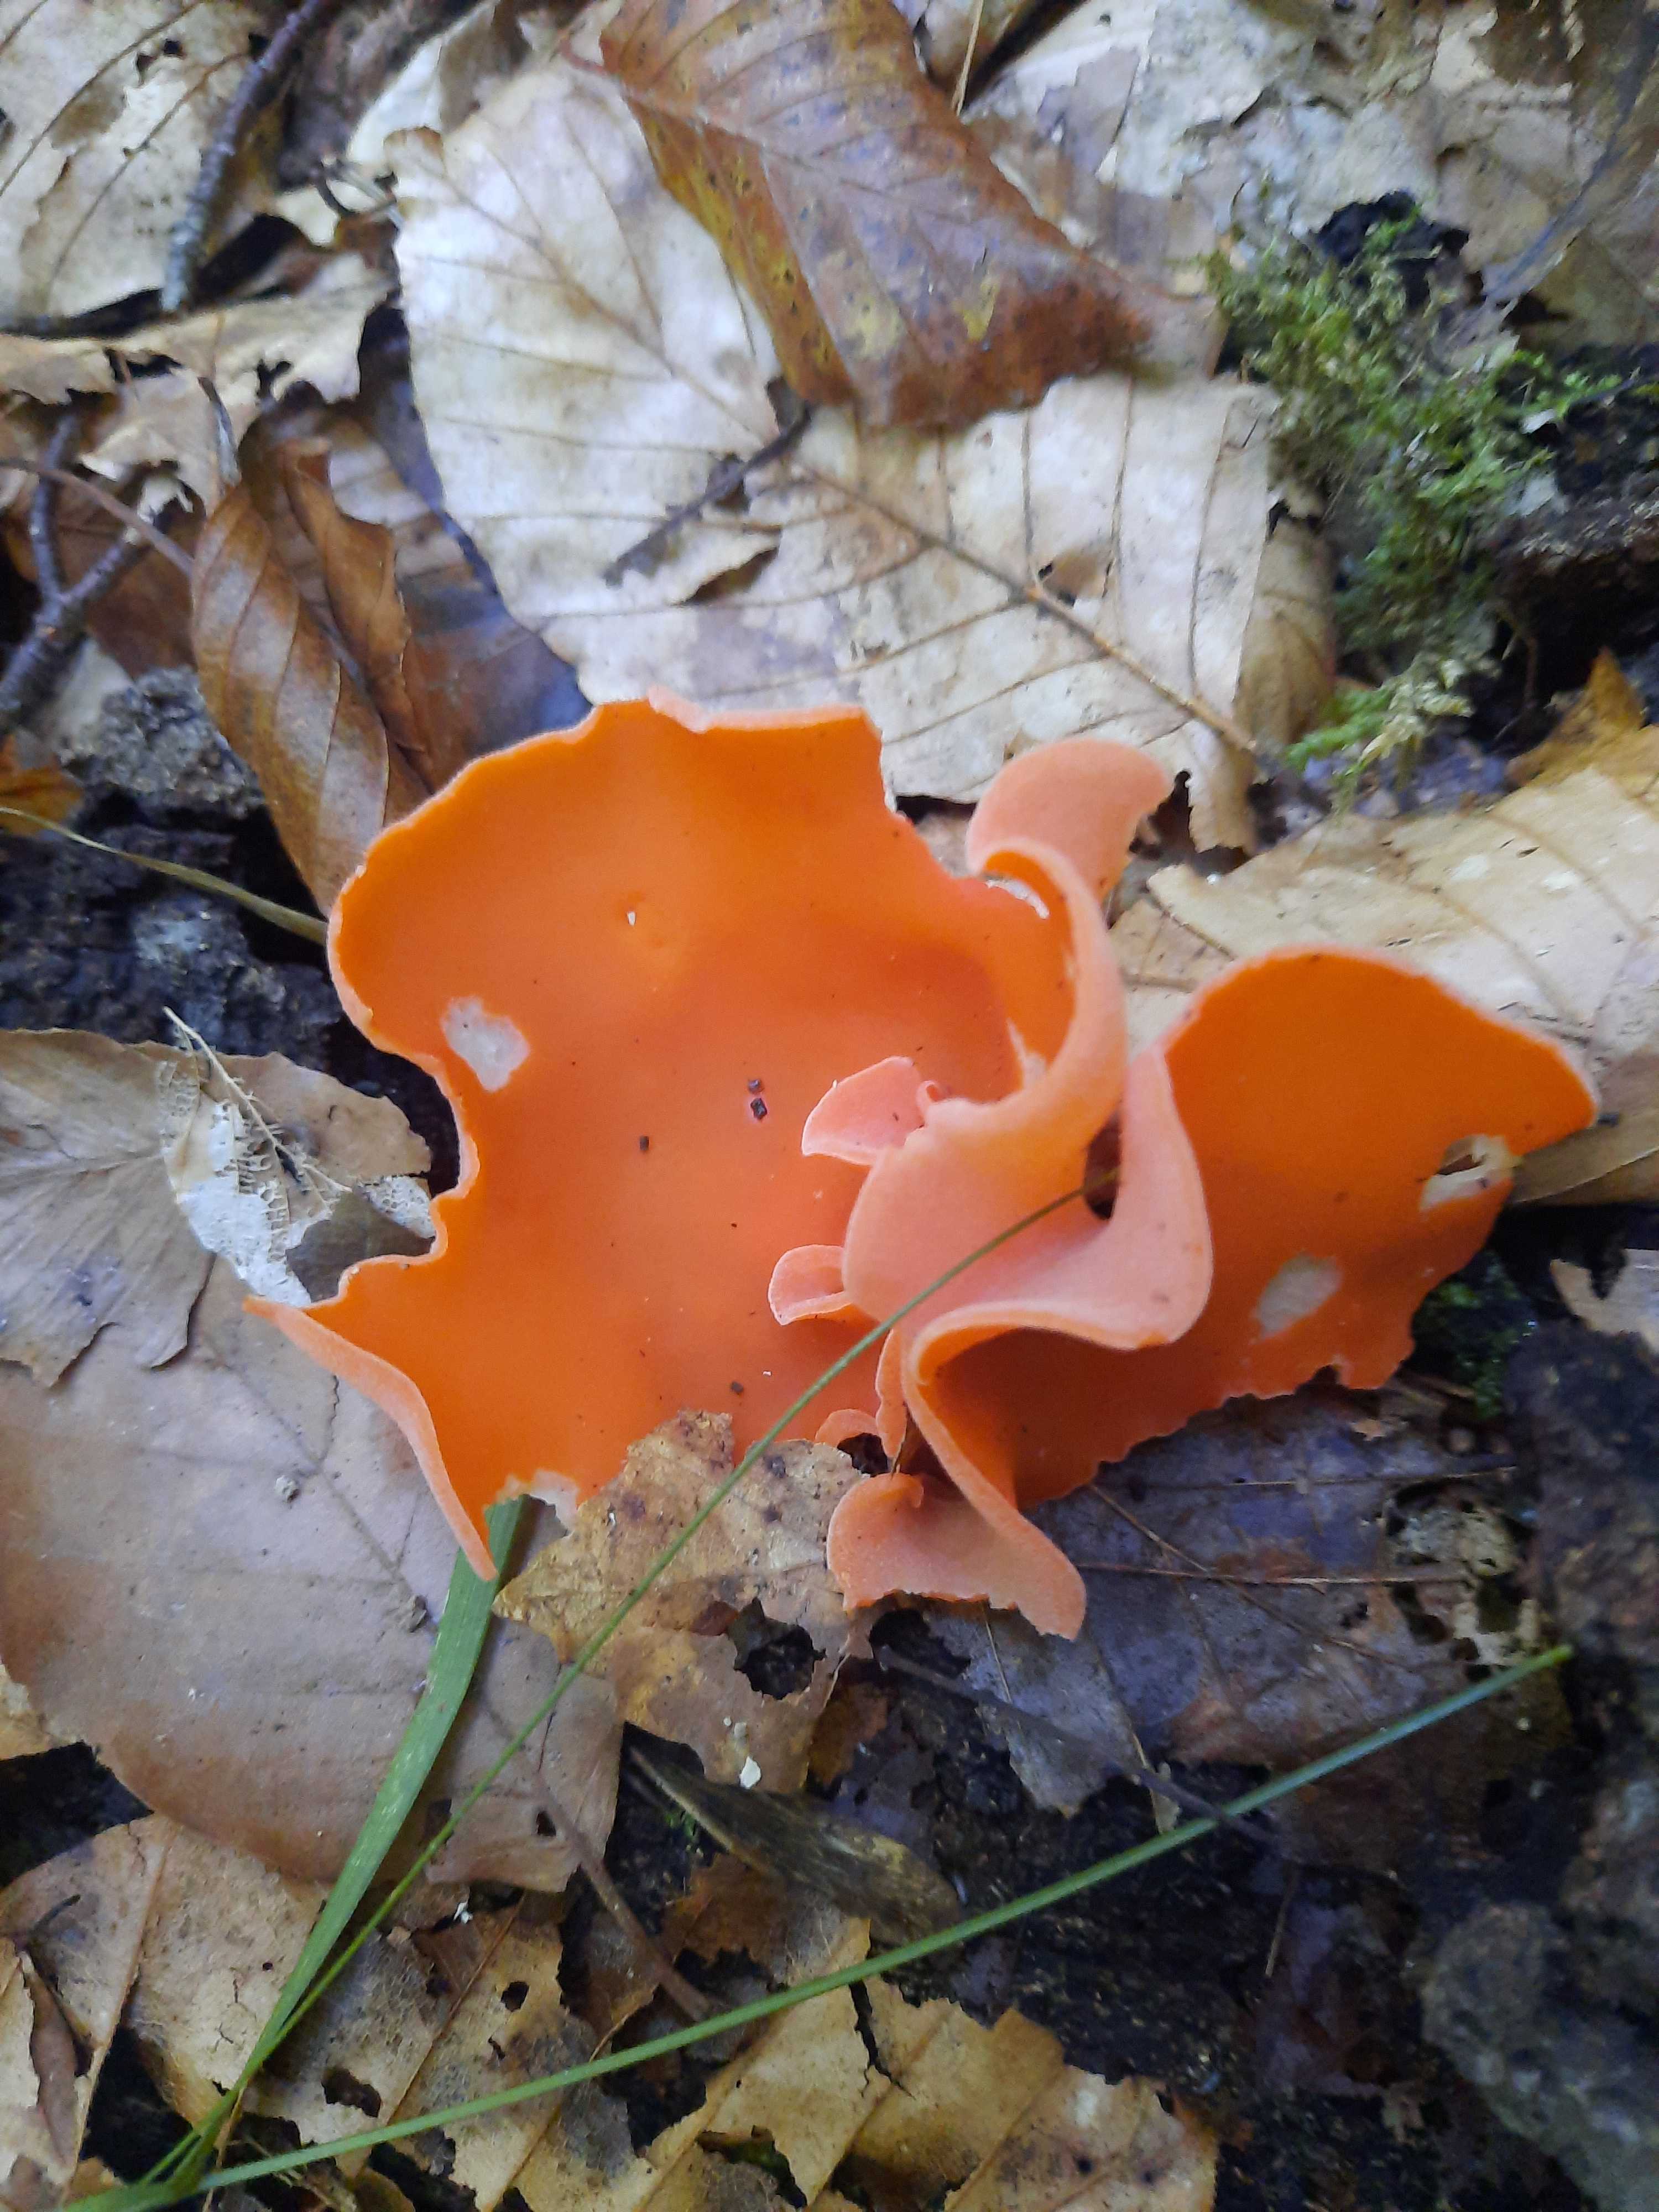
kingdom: Fungi
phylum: Ascomycota
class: Pezizomycetes
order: Pezizales
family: Pyronemataceae
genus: Aleuria
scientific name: Aleuria aurantia
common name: almindelig orangebæger
